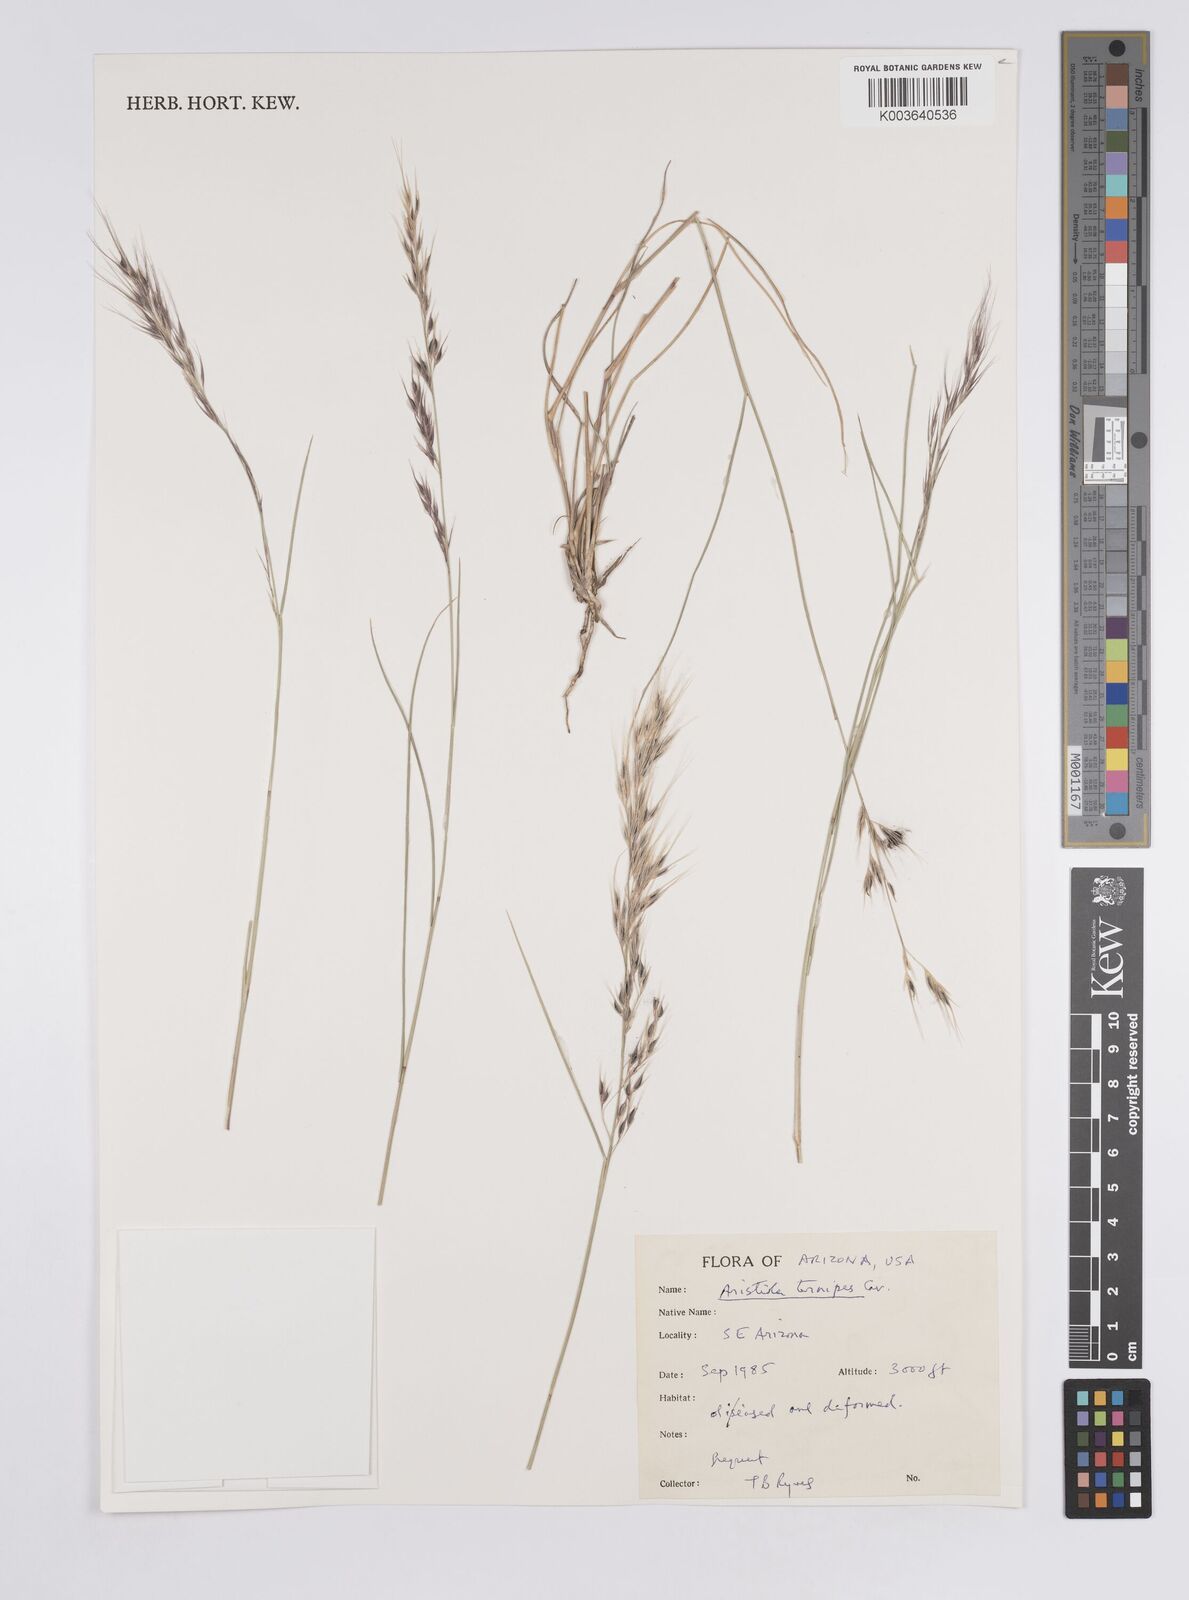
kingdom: Plantae
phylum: Tracheophyta
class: Liliopsida
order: Poales
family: Poaceae
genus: Aristida
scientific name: Aristida ternipes
